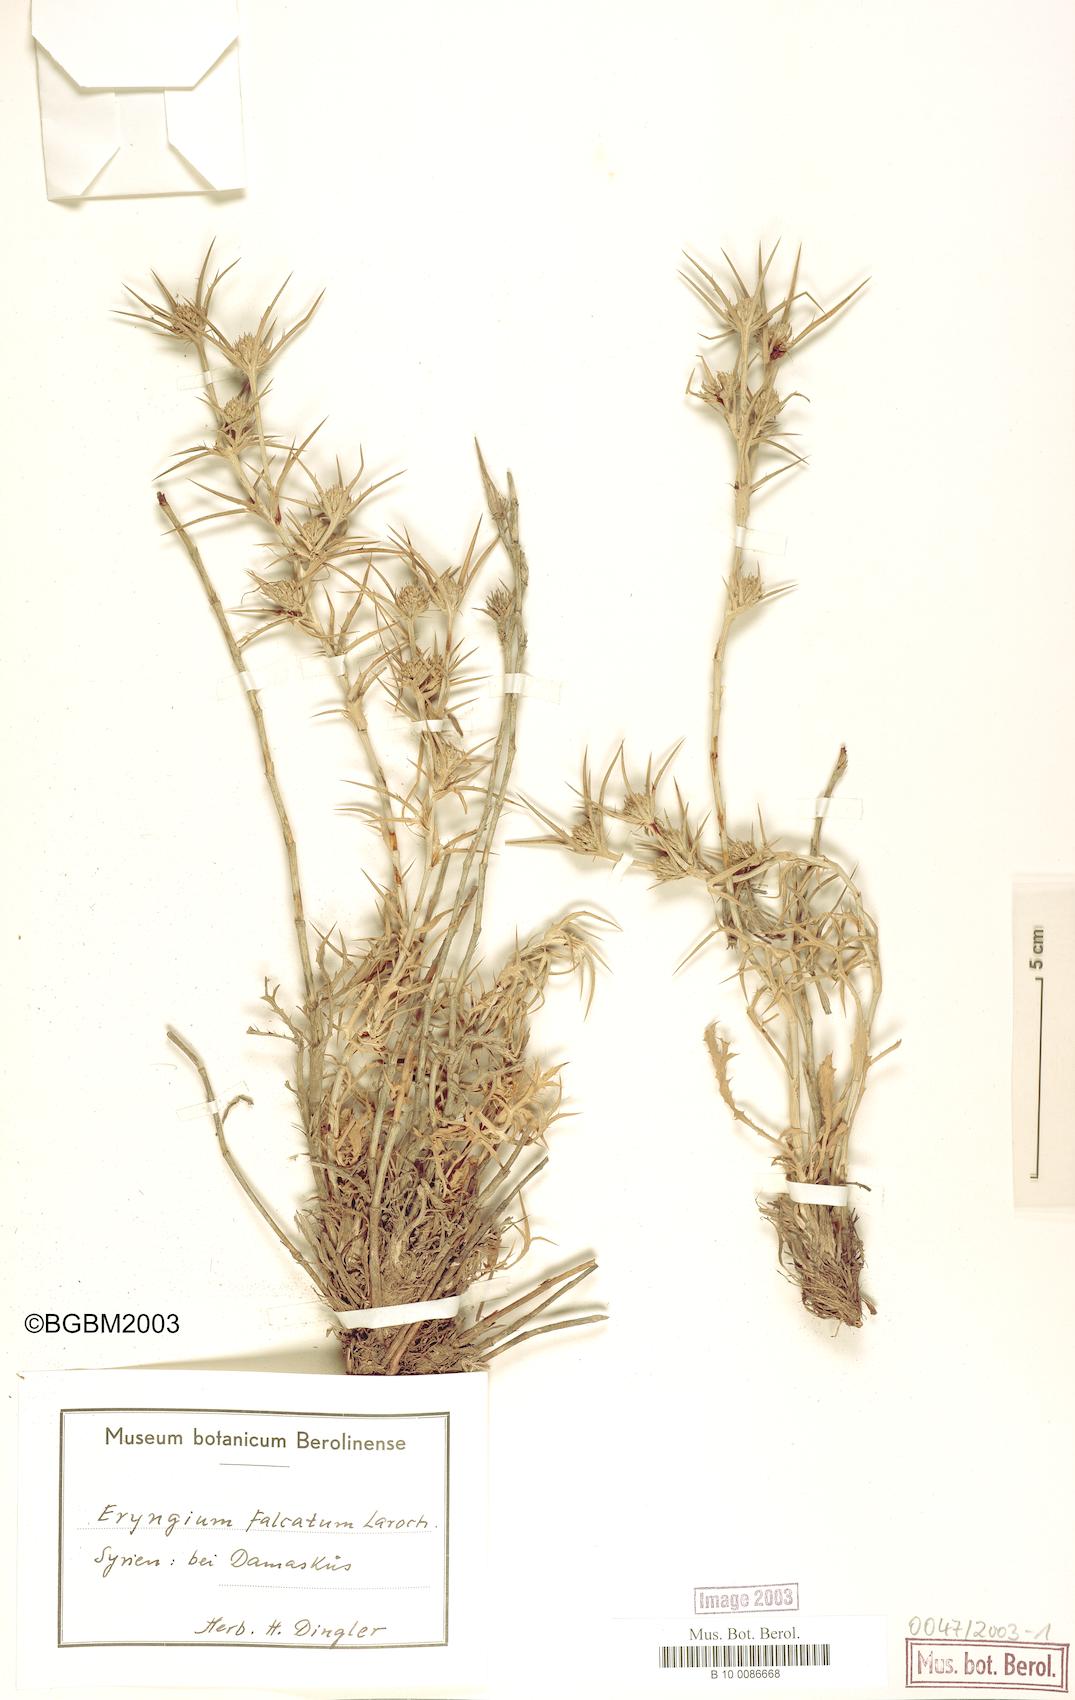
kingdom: Plantae
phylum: Tracheophyta
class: Magnoliopsida
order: Apiales
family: Apiaceae
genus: Eryngium
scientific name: Eryngium falcatum
